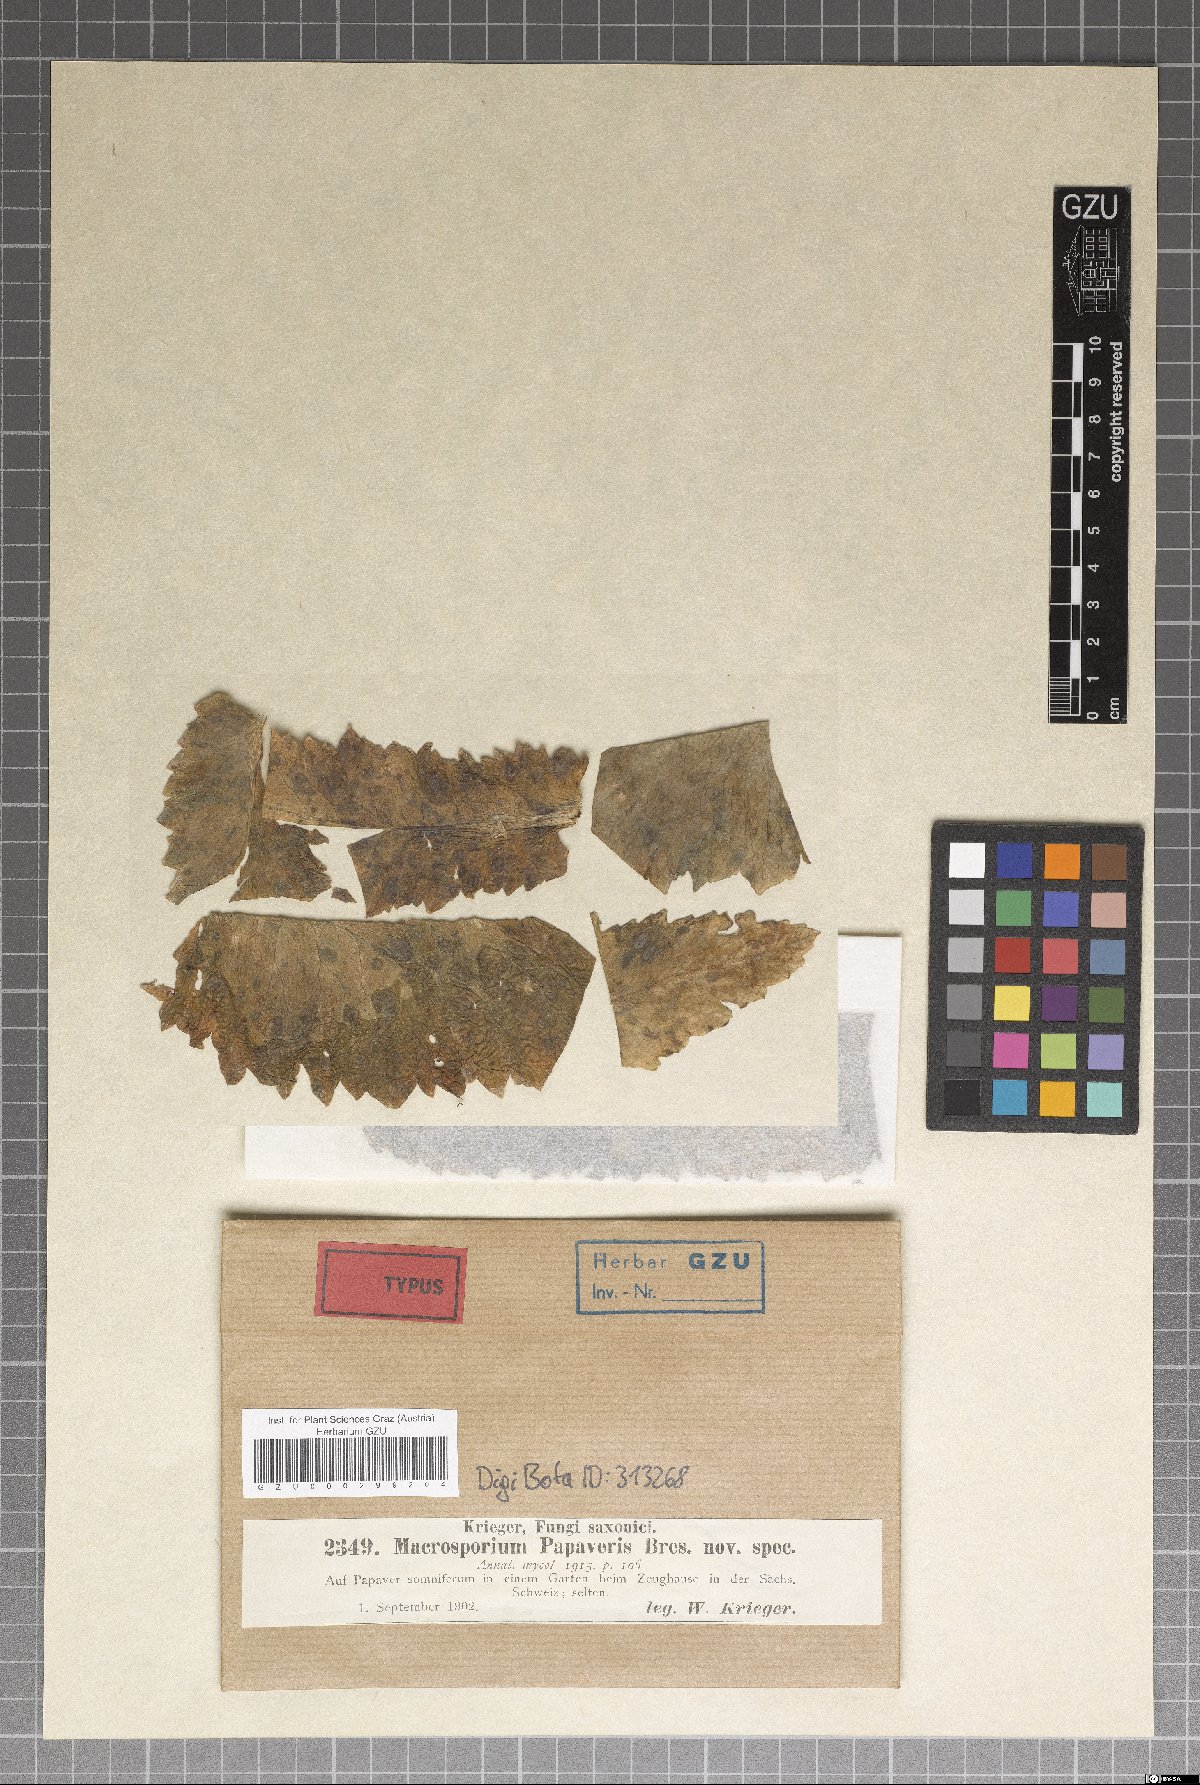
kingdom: Fungi
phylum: Ascomycota
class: Dothideomycetes
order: Pleosporales
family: Pleosporaceae
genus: Alternaria
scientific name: Alternaria papaveris
